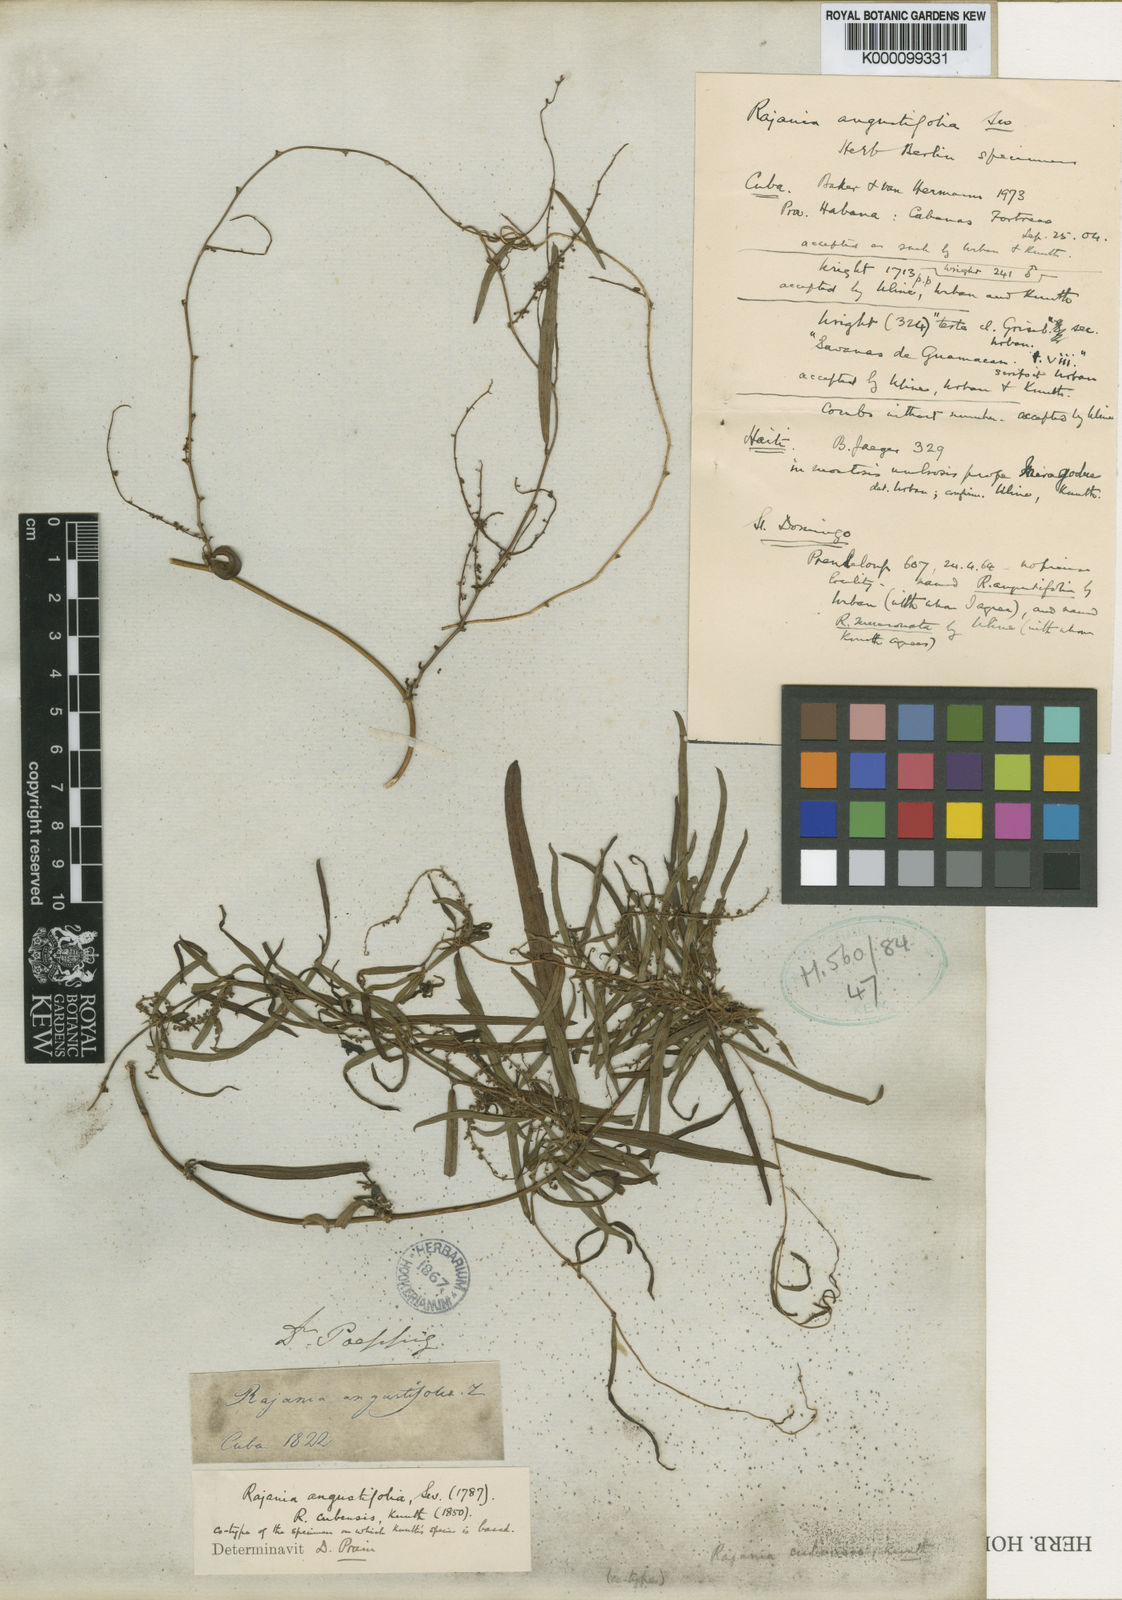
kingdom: Plantae
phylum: Tracheophyta
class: Liliopsida
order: Dioscoreales
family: Dioscoreaceae
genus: Dioscorea
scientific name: Dioscorea quinquefolia
